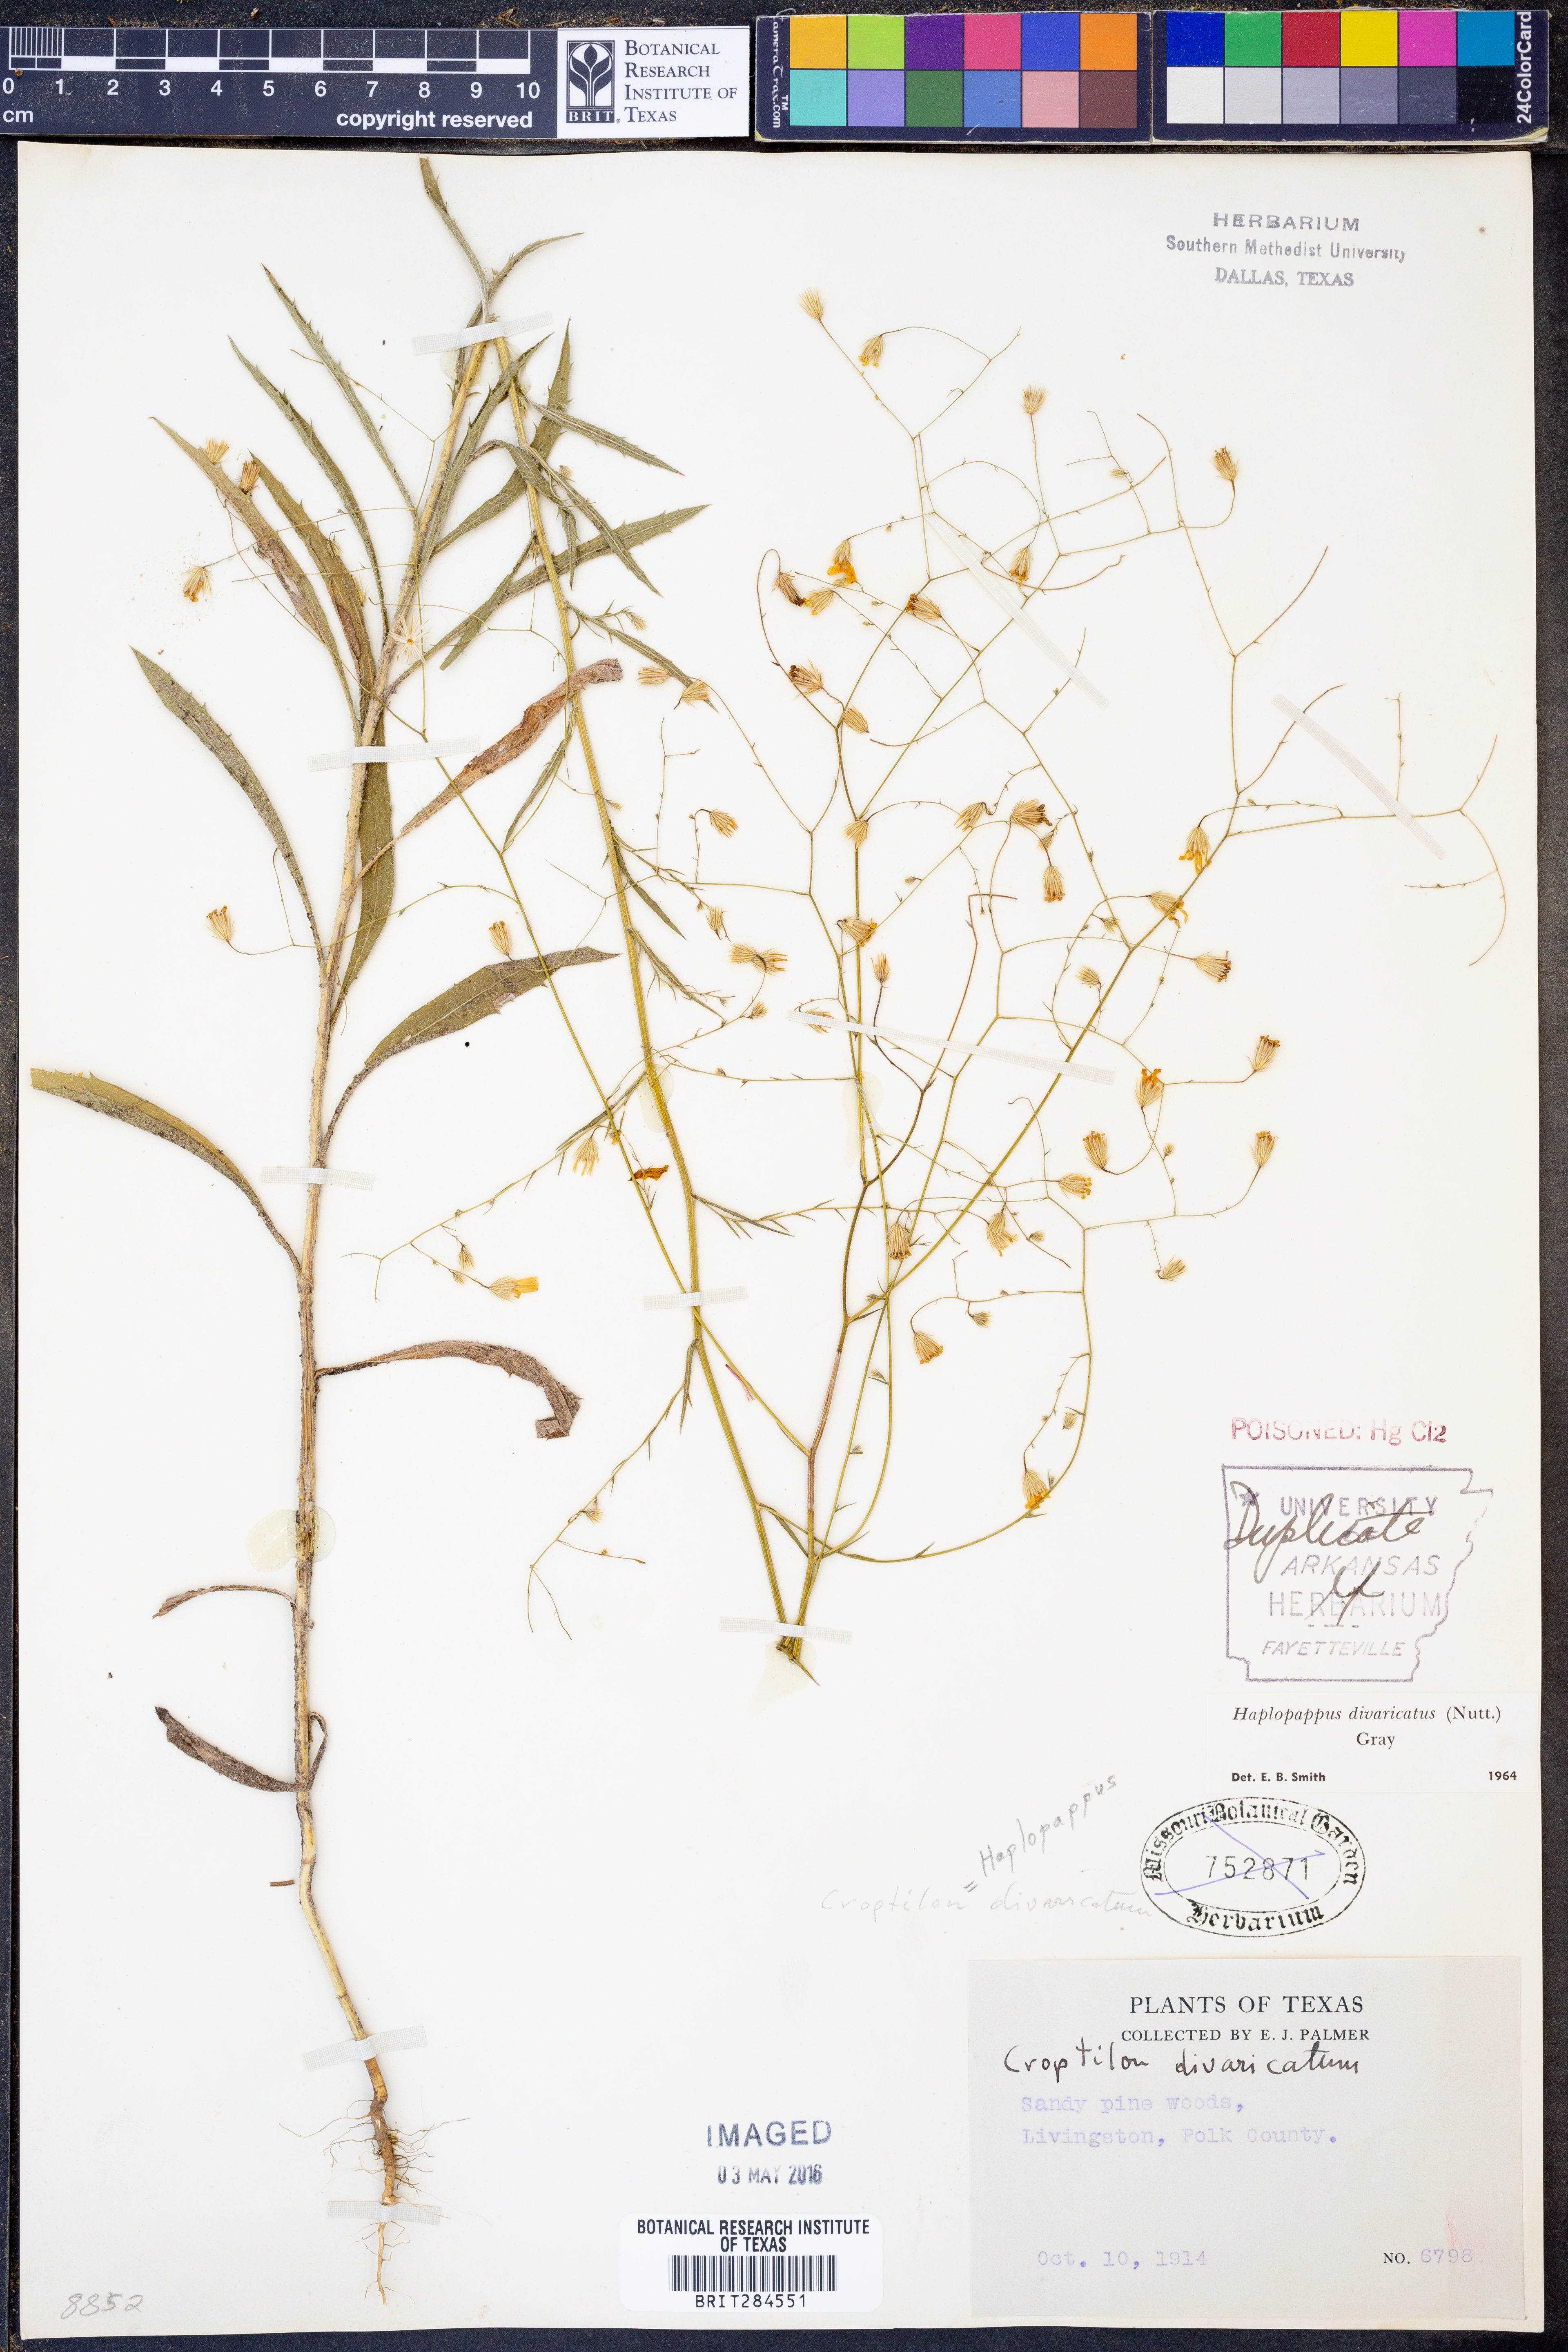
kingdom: Plantae
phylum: Tracheophyta
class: Magnoliopsida
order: Asterales
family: Asteraceae
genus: Croptilon
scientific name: Croptilon divaricatum
